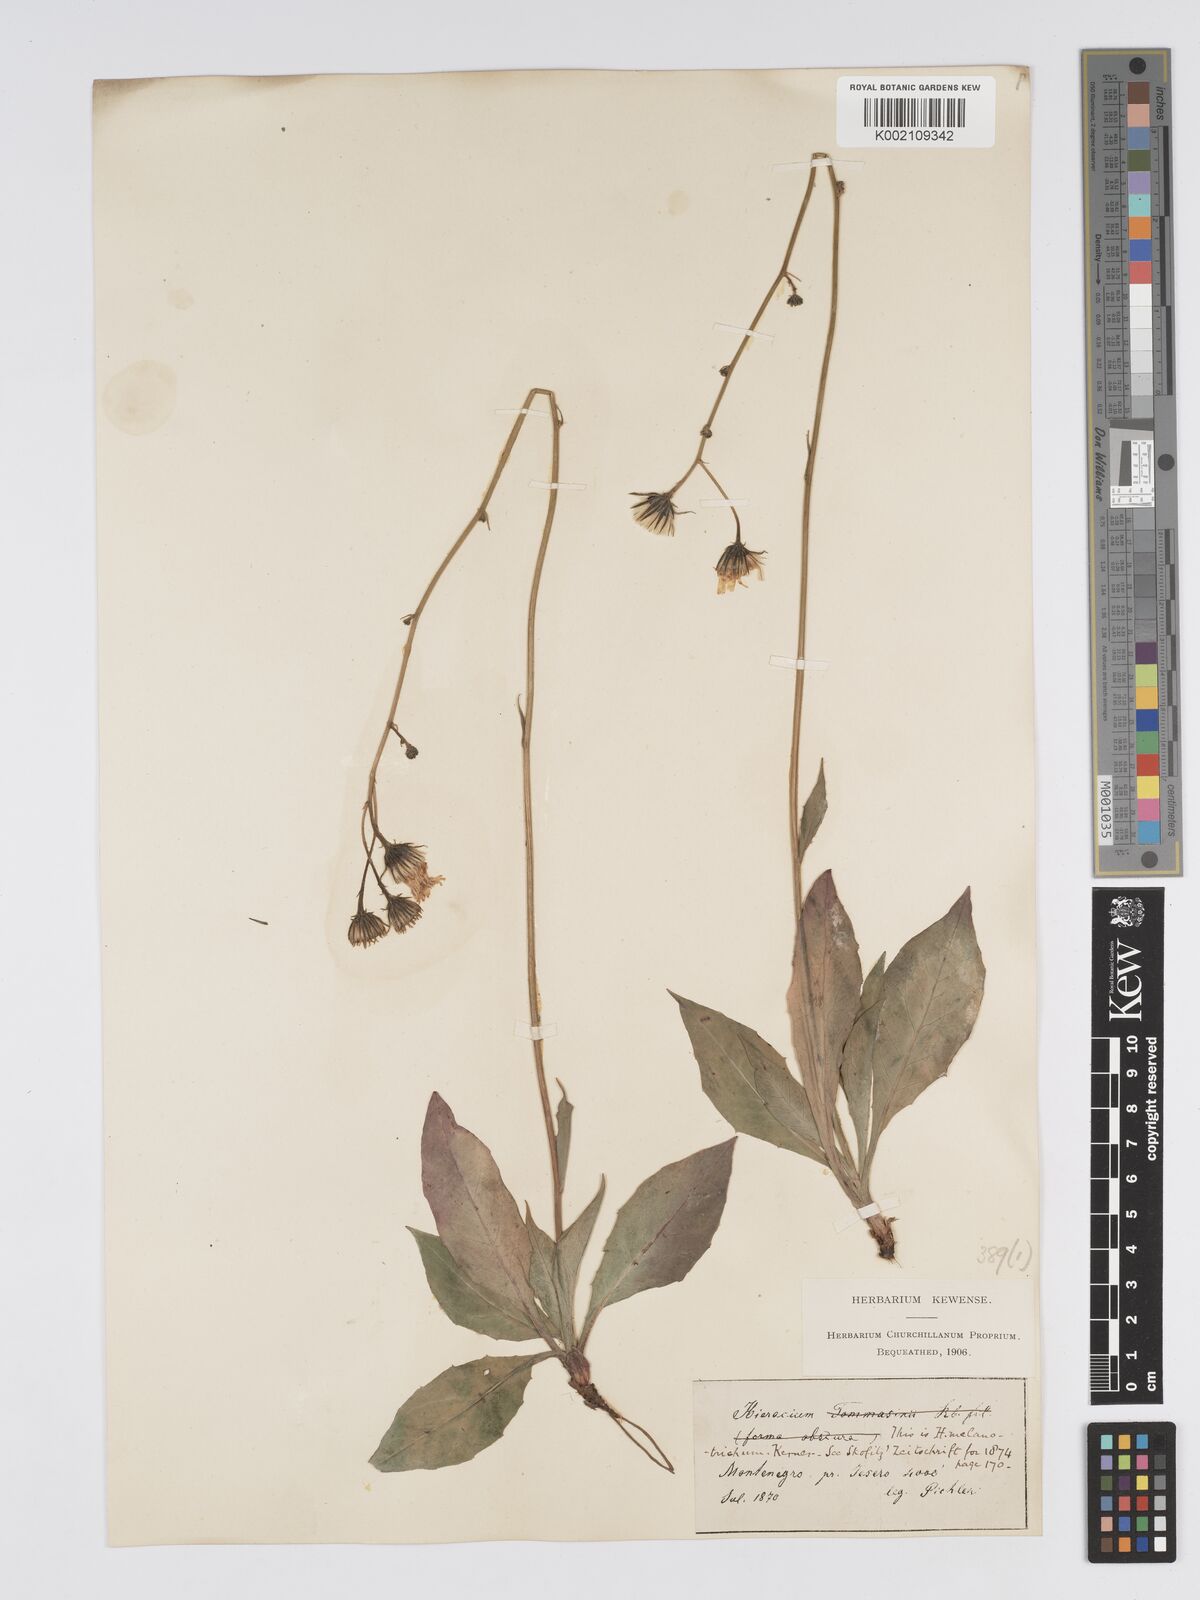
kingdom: Plantae
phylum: Tracheophyta
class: Magnoliopsida
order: Asterales
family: Asteraceae
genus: Hieracium
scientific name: Hieracium tommasinianum
